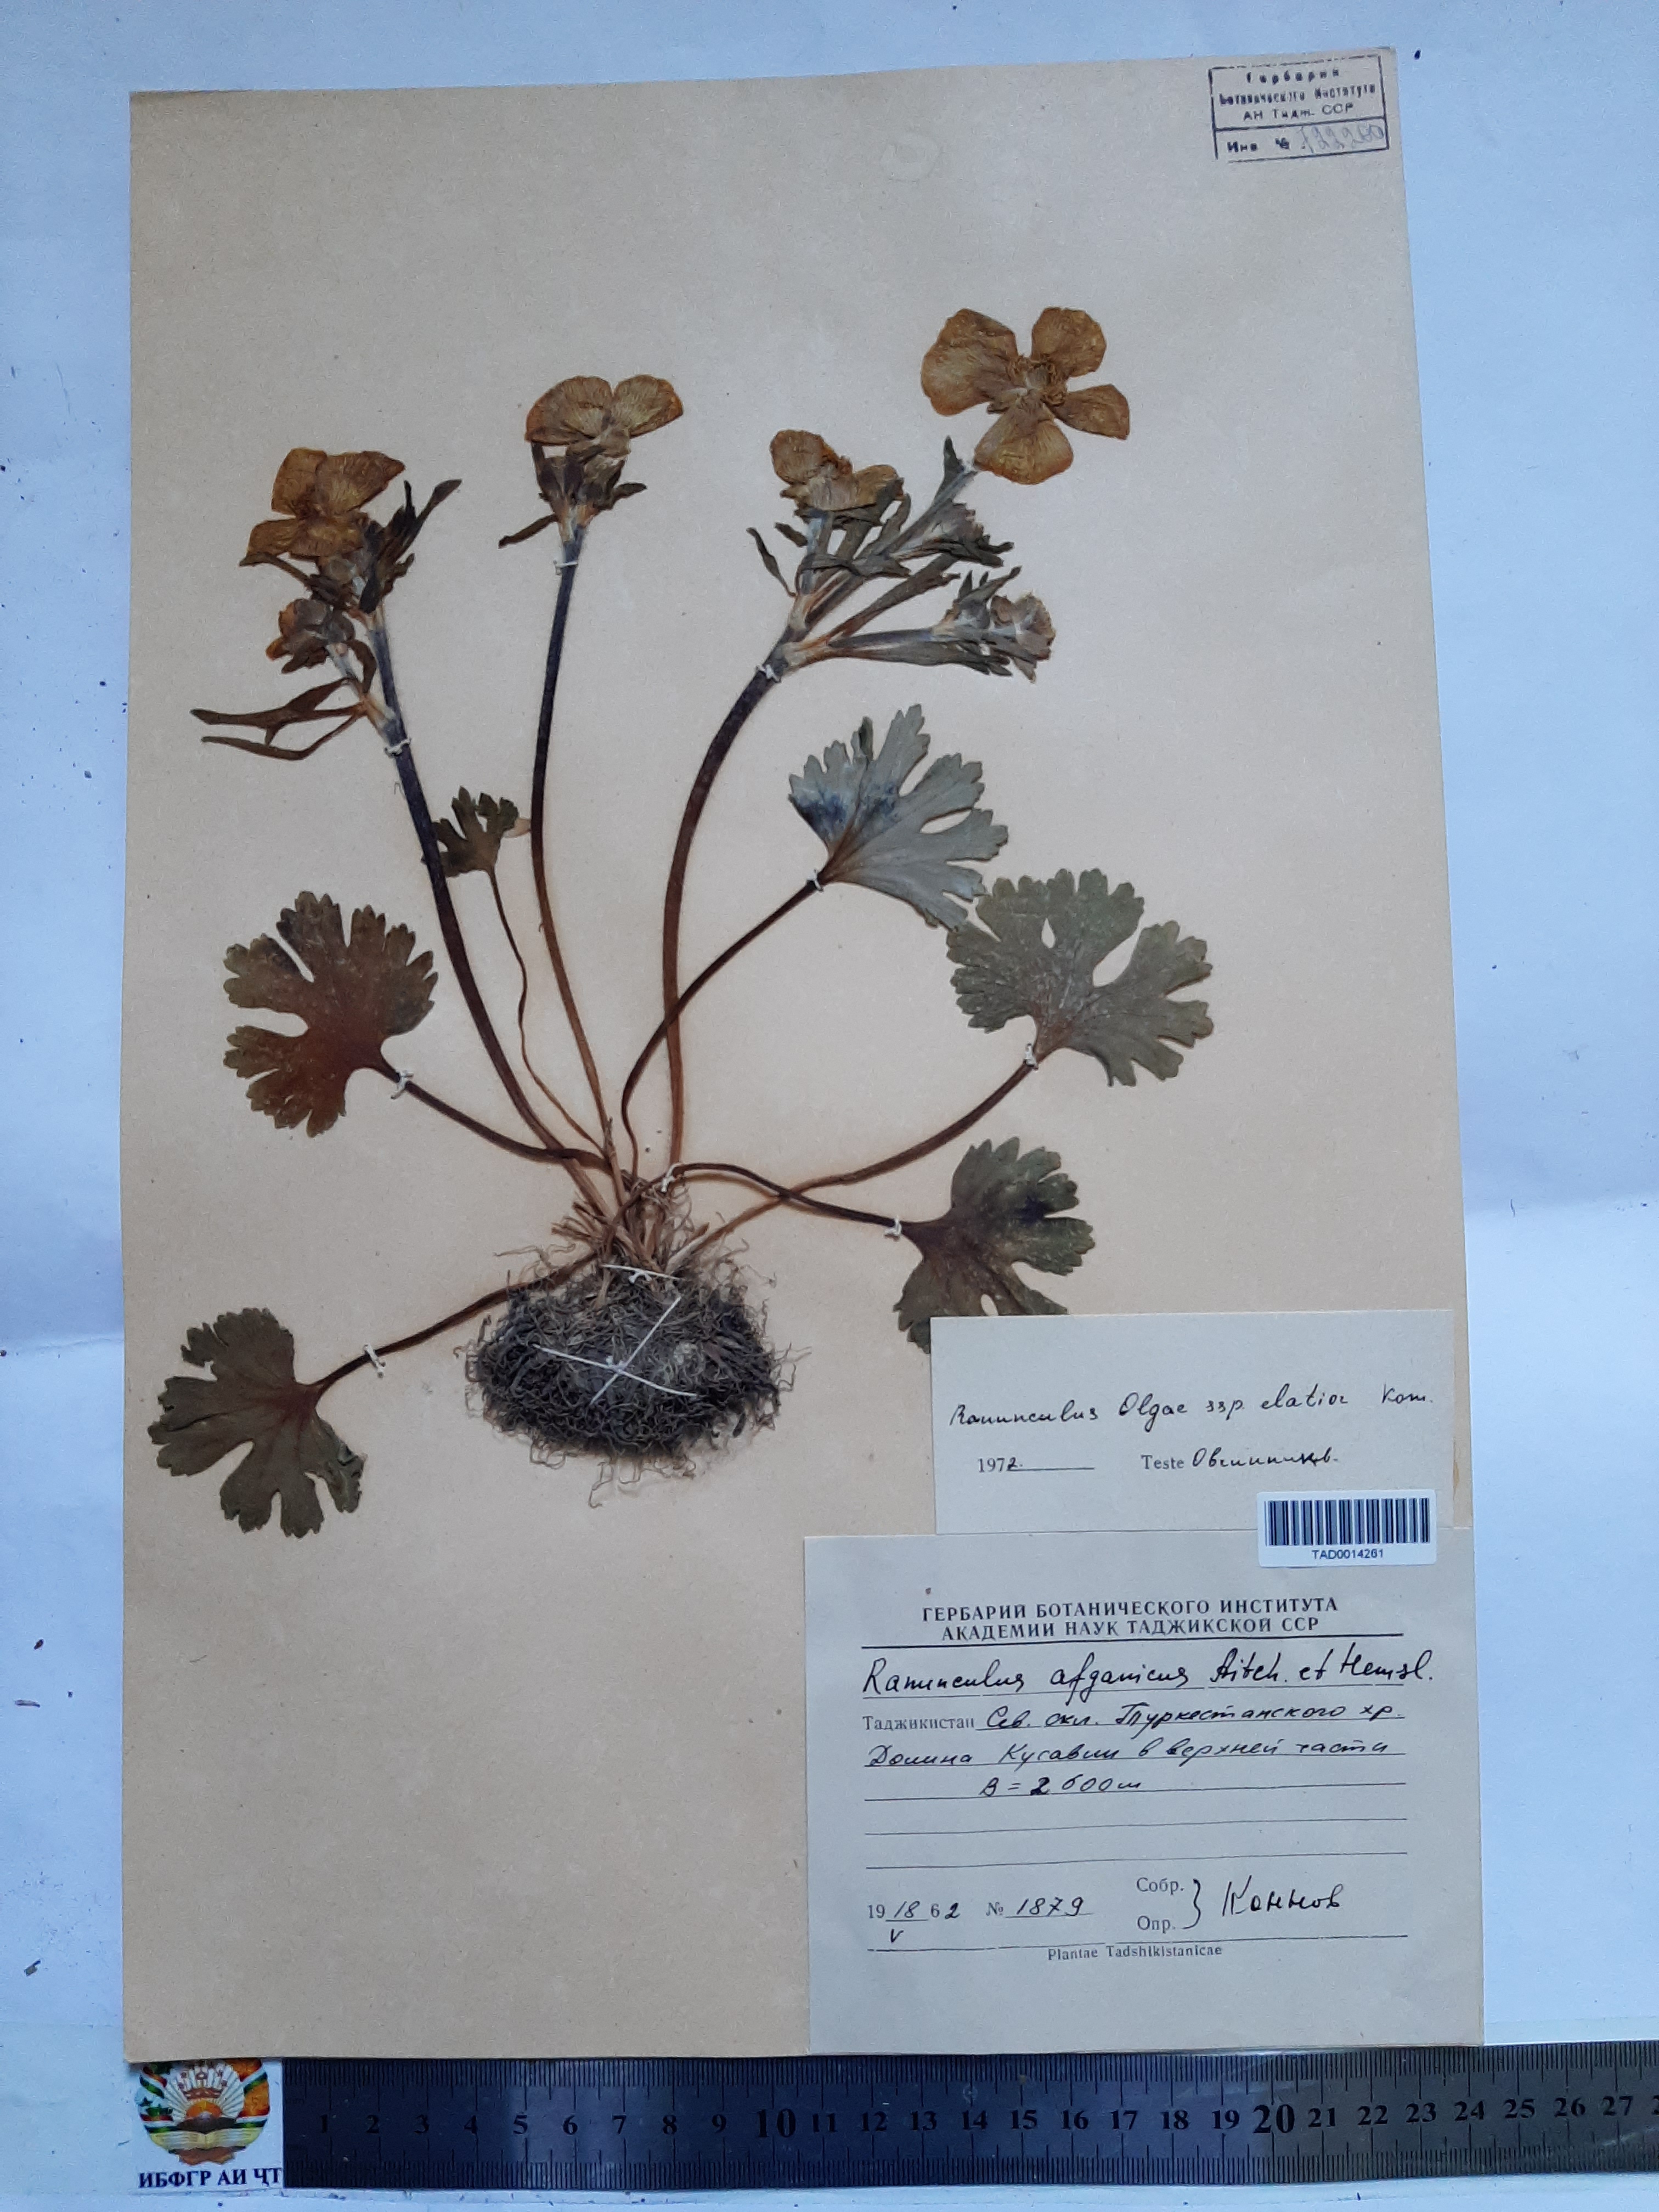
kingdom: Plantae
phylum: Tracheophyta
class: Magnoliopsida
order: Ranunculales
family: Ranunculaceae
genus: Ranunculus
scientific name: Ranunculus afghanicus
